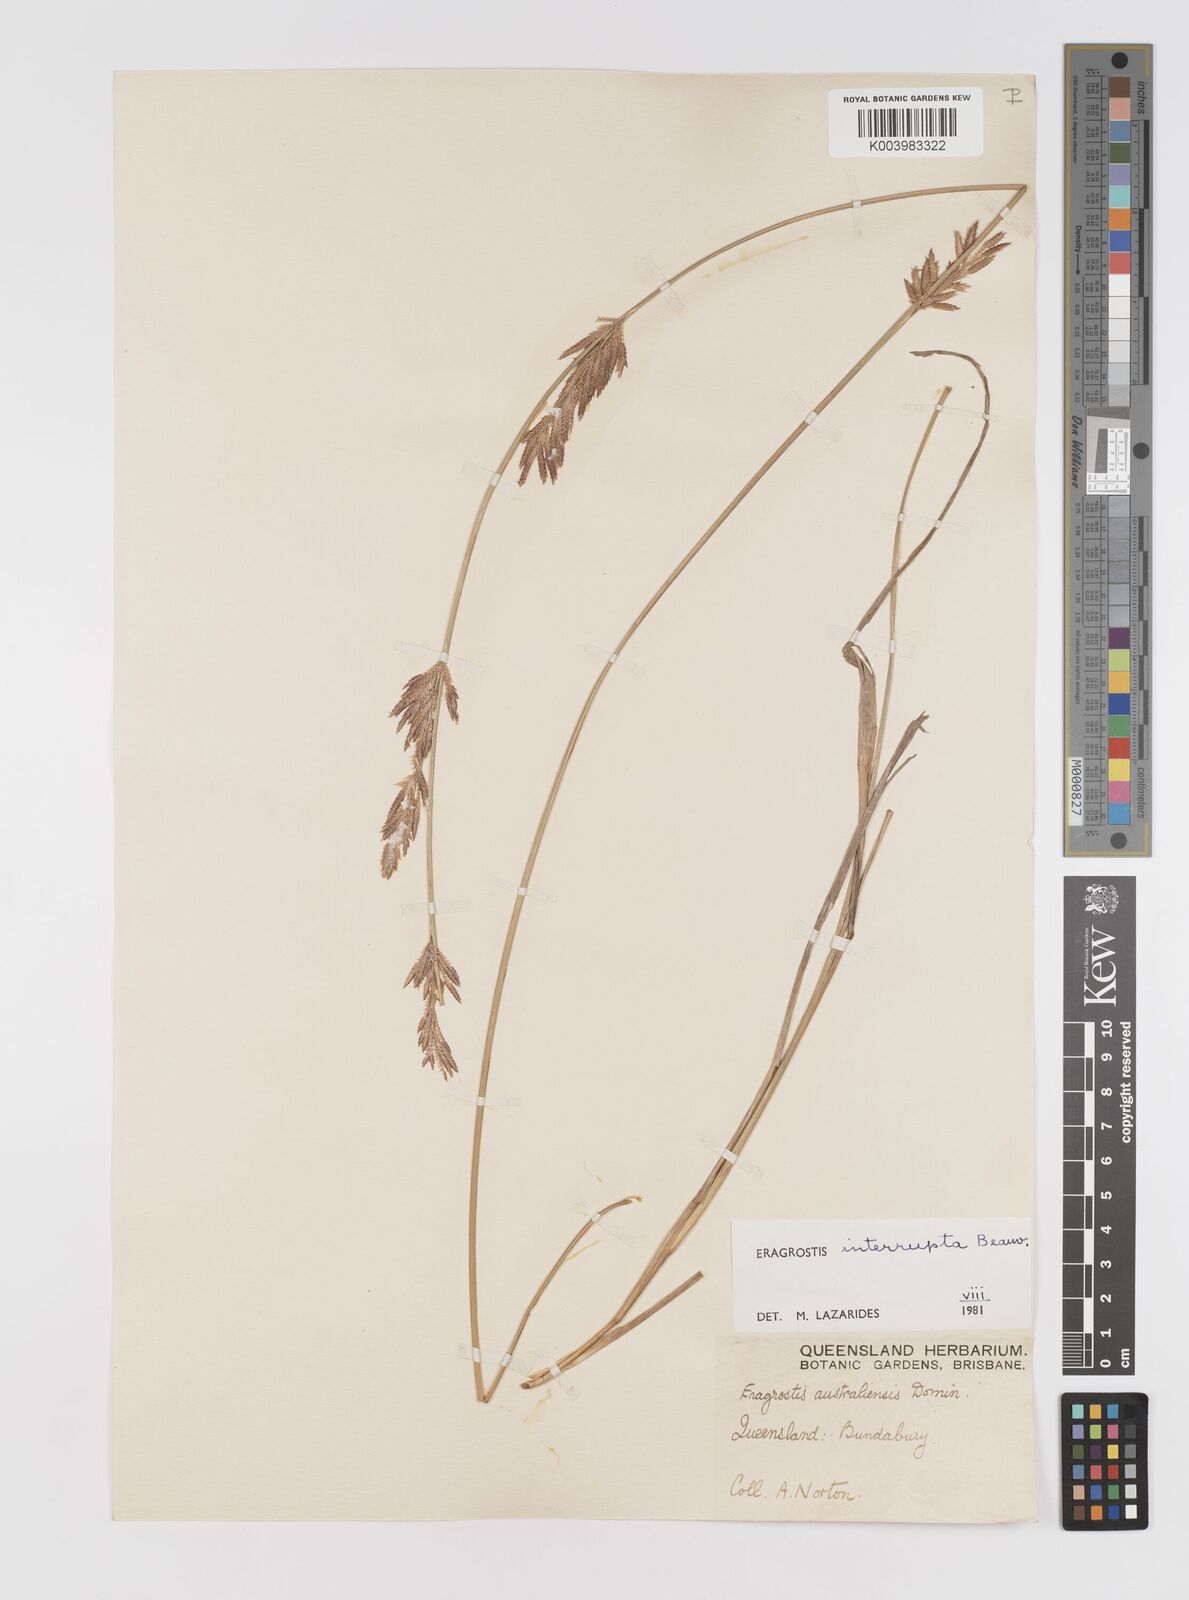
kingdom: Plantae
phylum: Tracheophyta
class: Liliopsida
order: Poales
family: Poaceae
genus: Eragrostis
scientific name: Eragrostis interrupta
